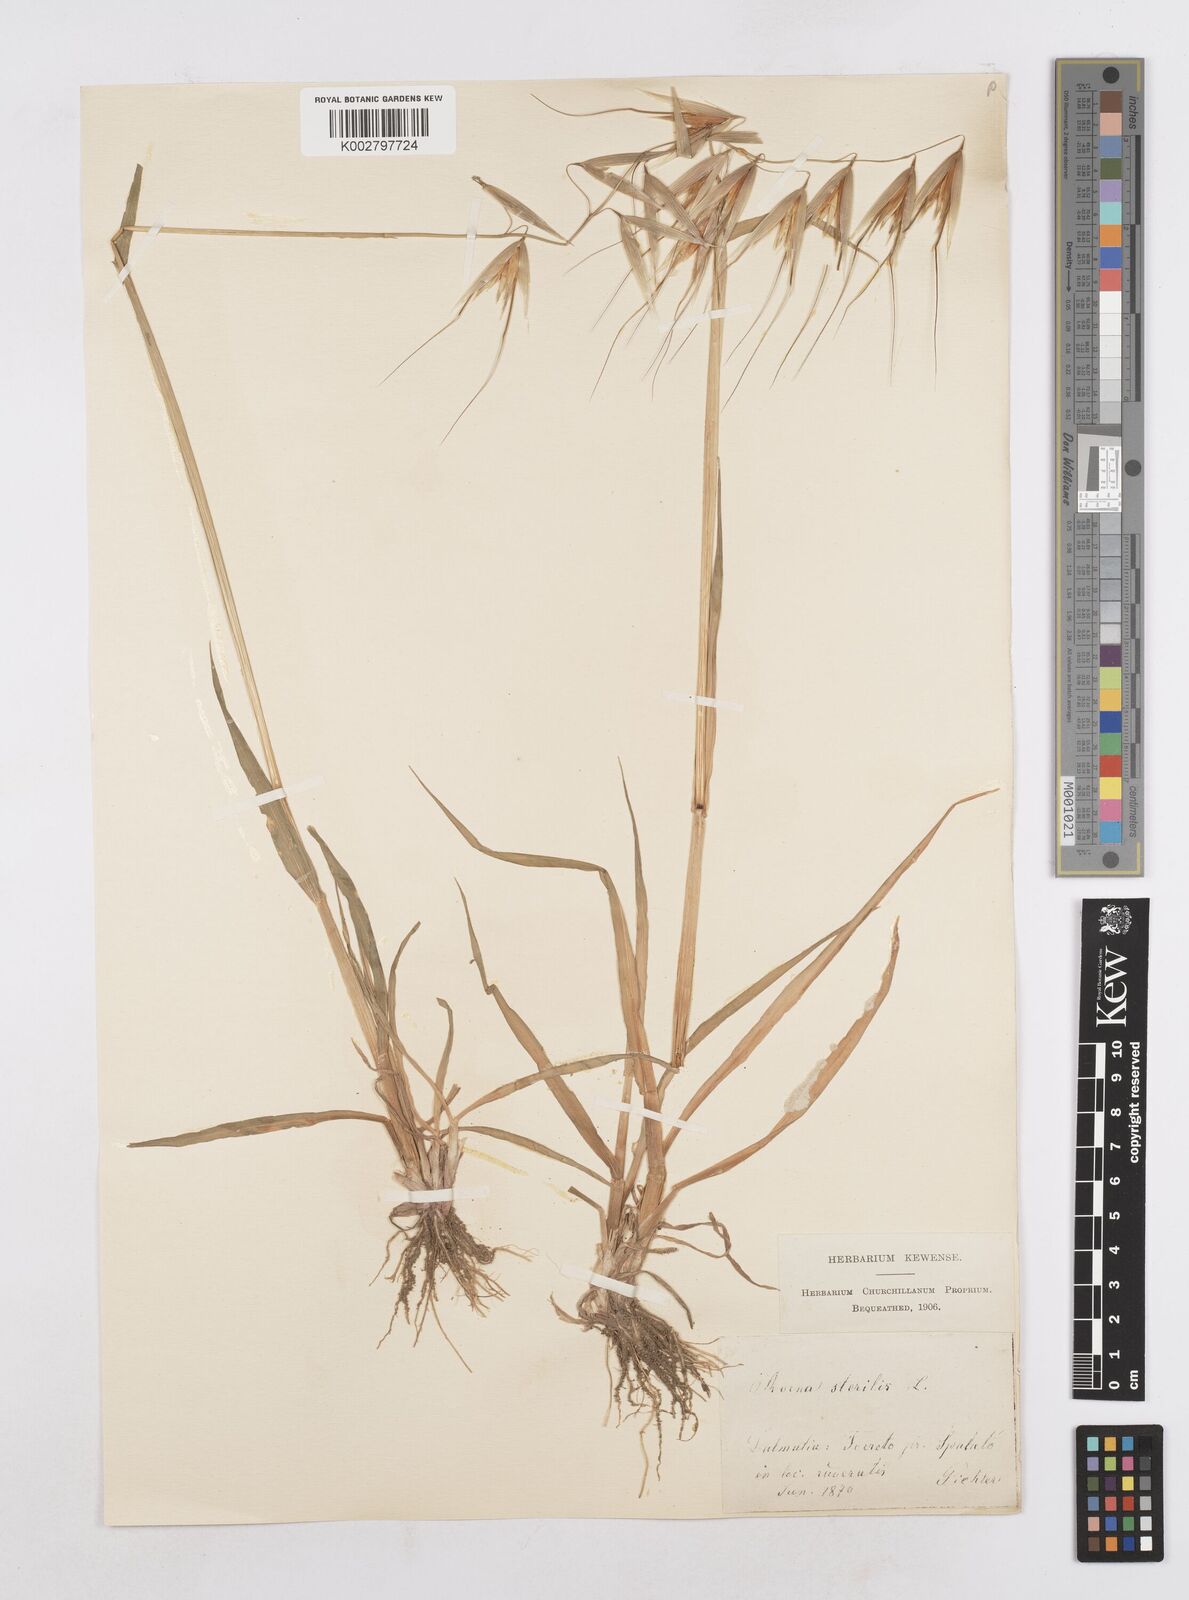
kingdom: Plantae
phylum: Tracheophyta
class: Liliopsida
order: Poales
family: Poaceae
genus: Avena
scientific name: Avena sterilis
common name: Animated oat
